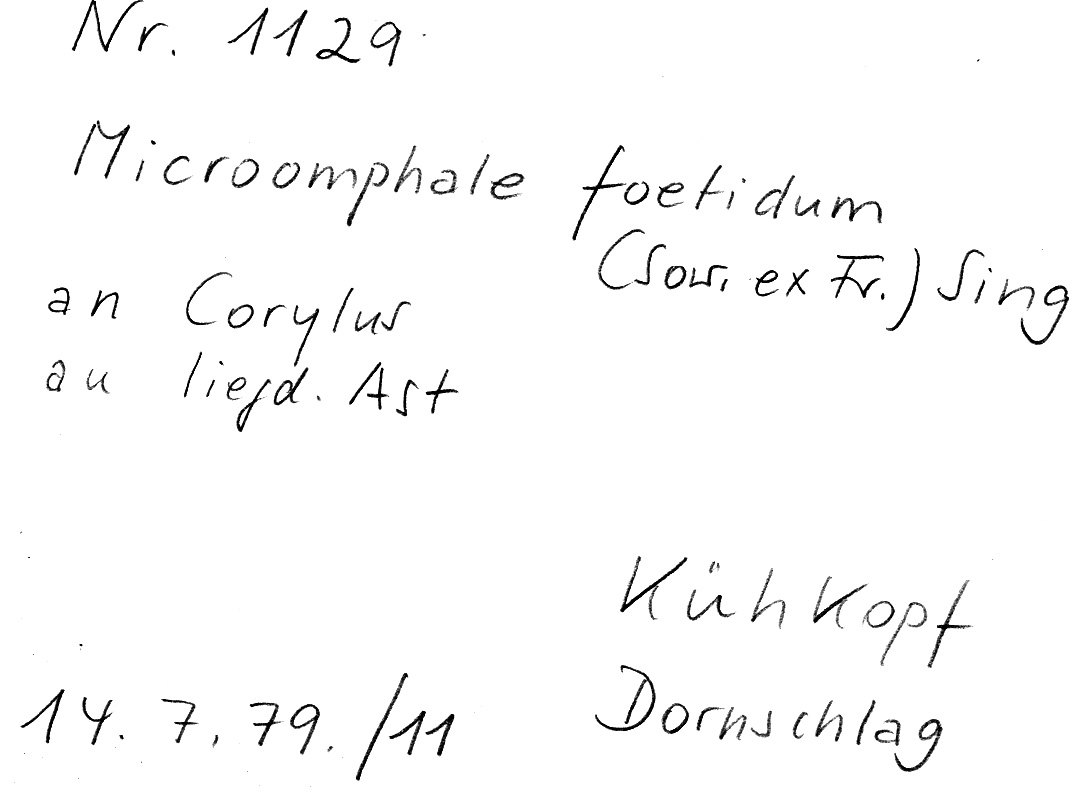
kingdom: Plantae
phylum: Tracheophyta
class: Magnoliopsida
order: Fagales
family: Betulaceae
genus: Corylus
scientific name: Corylus
